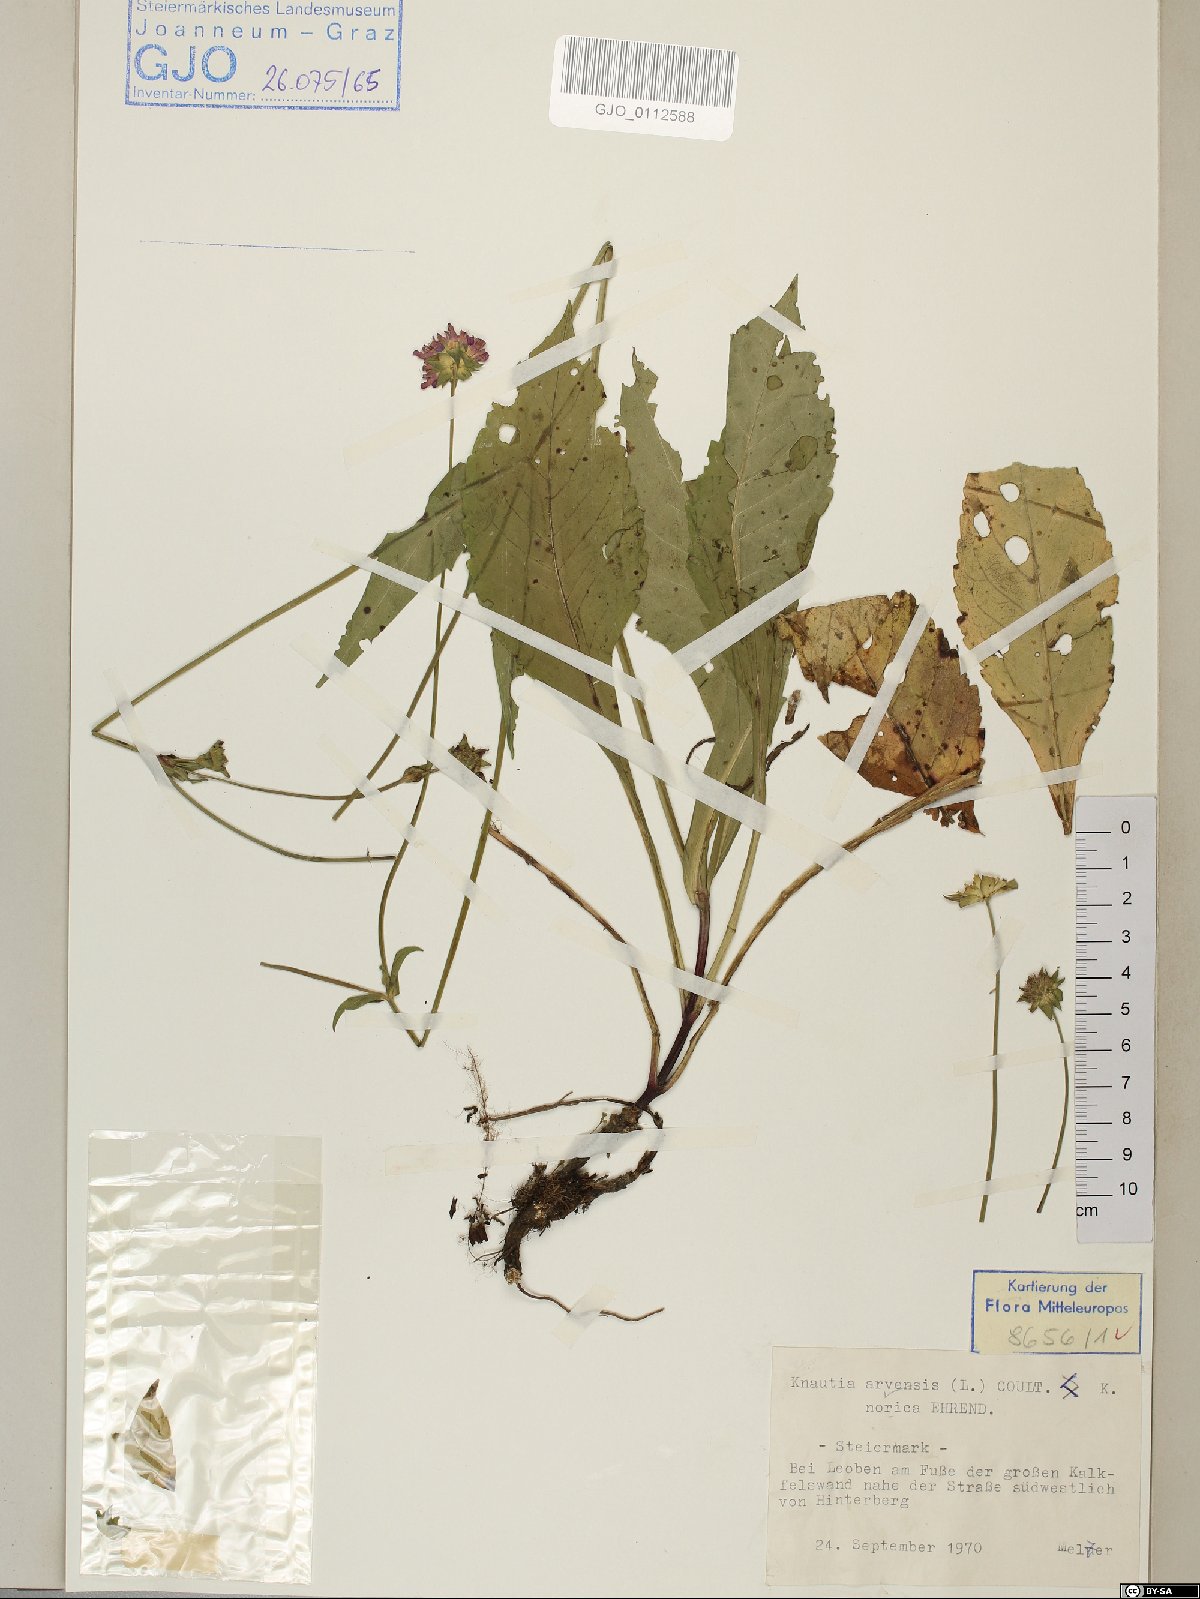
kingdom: Plantae
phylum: Tracheophyta
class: Magnoliopsida
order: Dipsacales
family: Dipsacaceae
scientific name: Dipsacaceae
